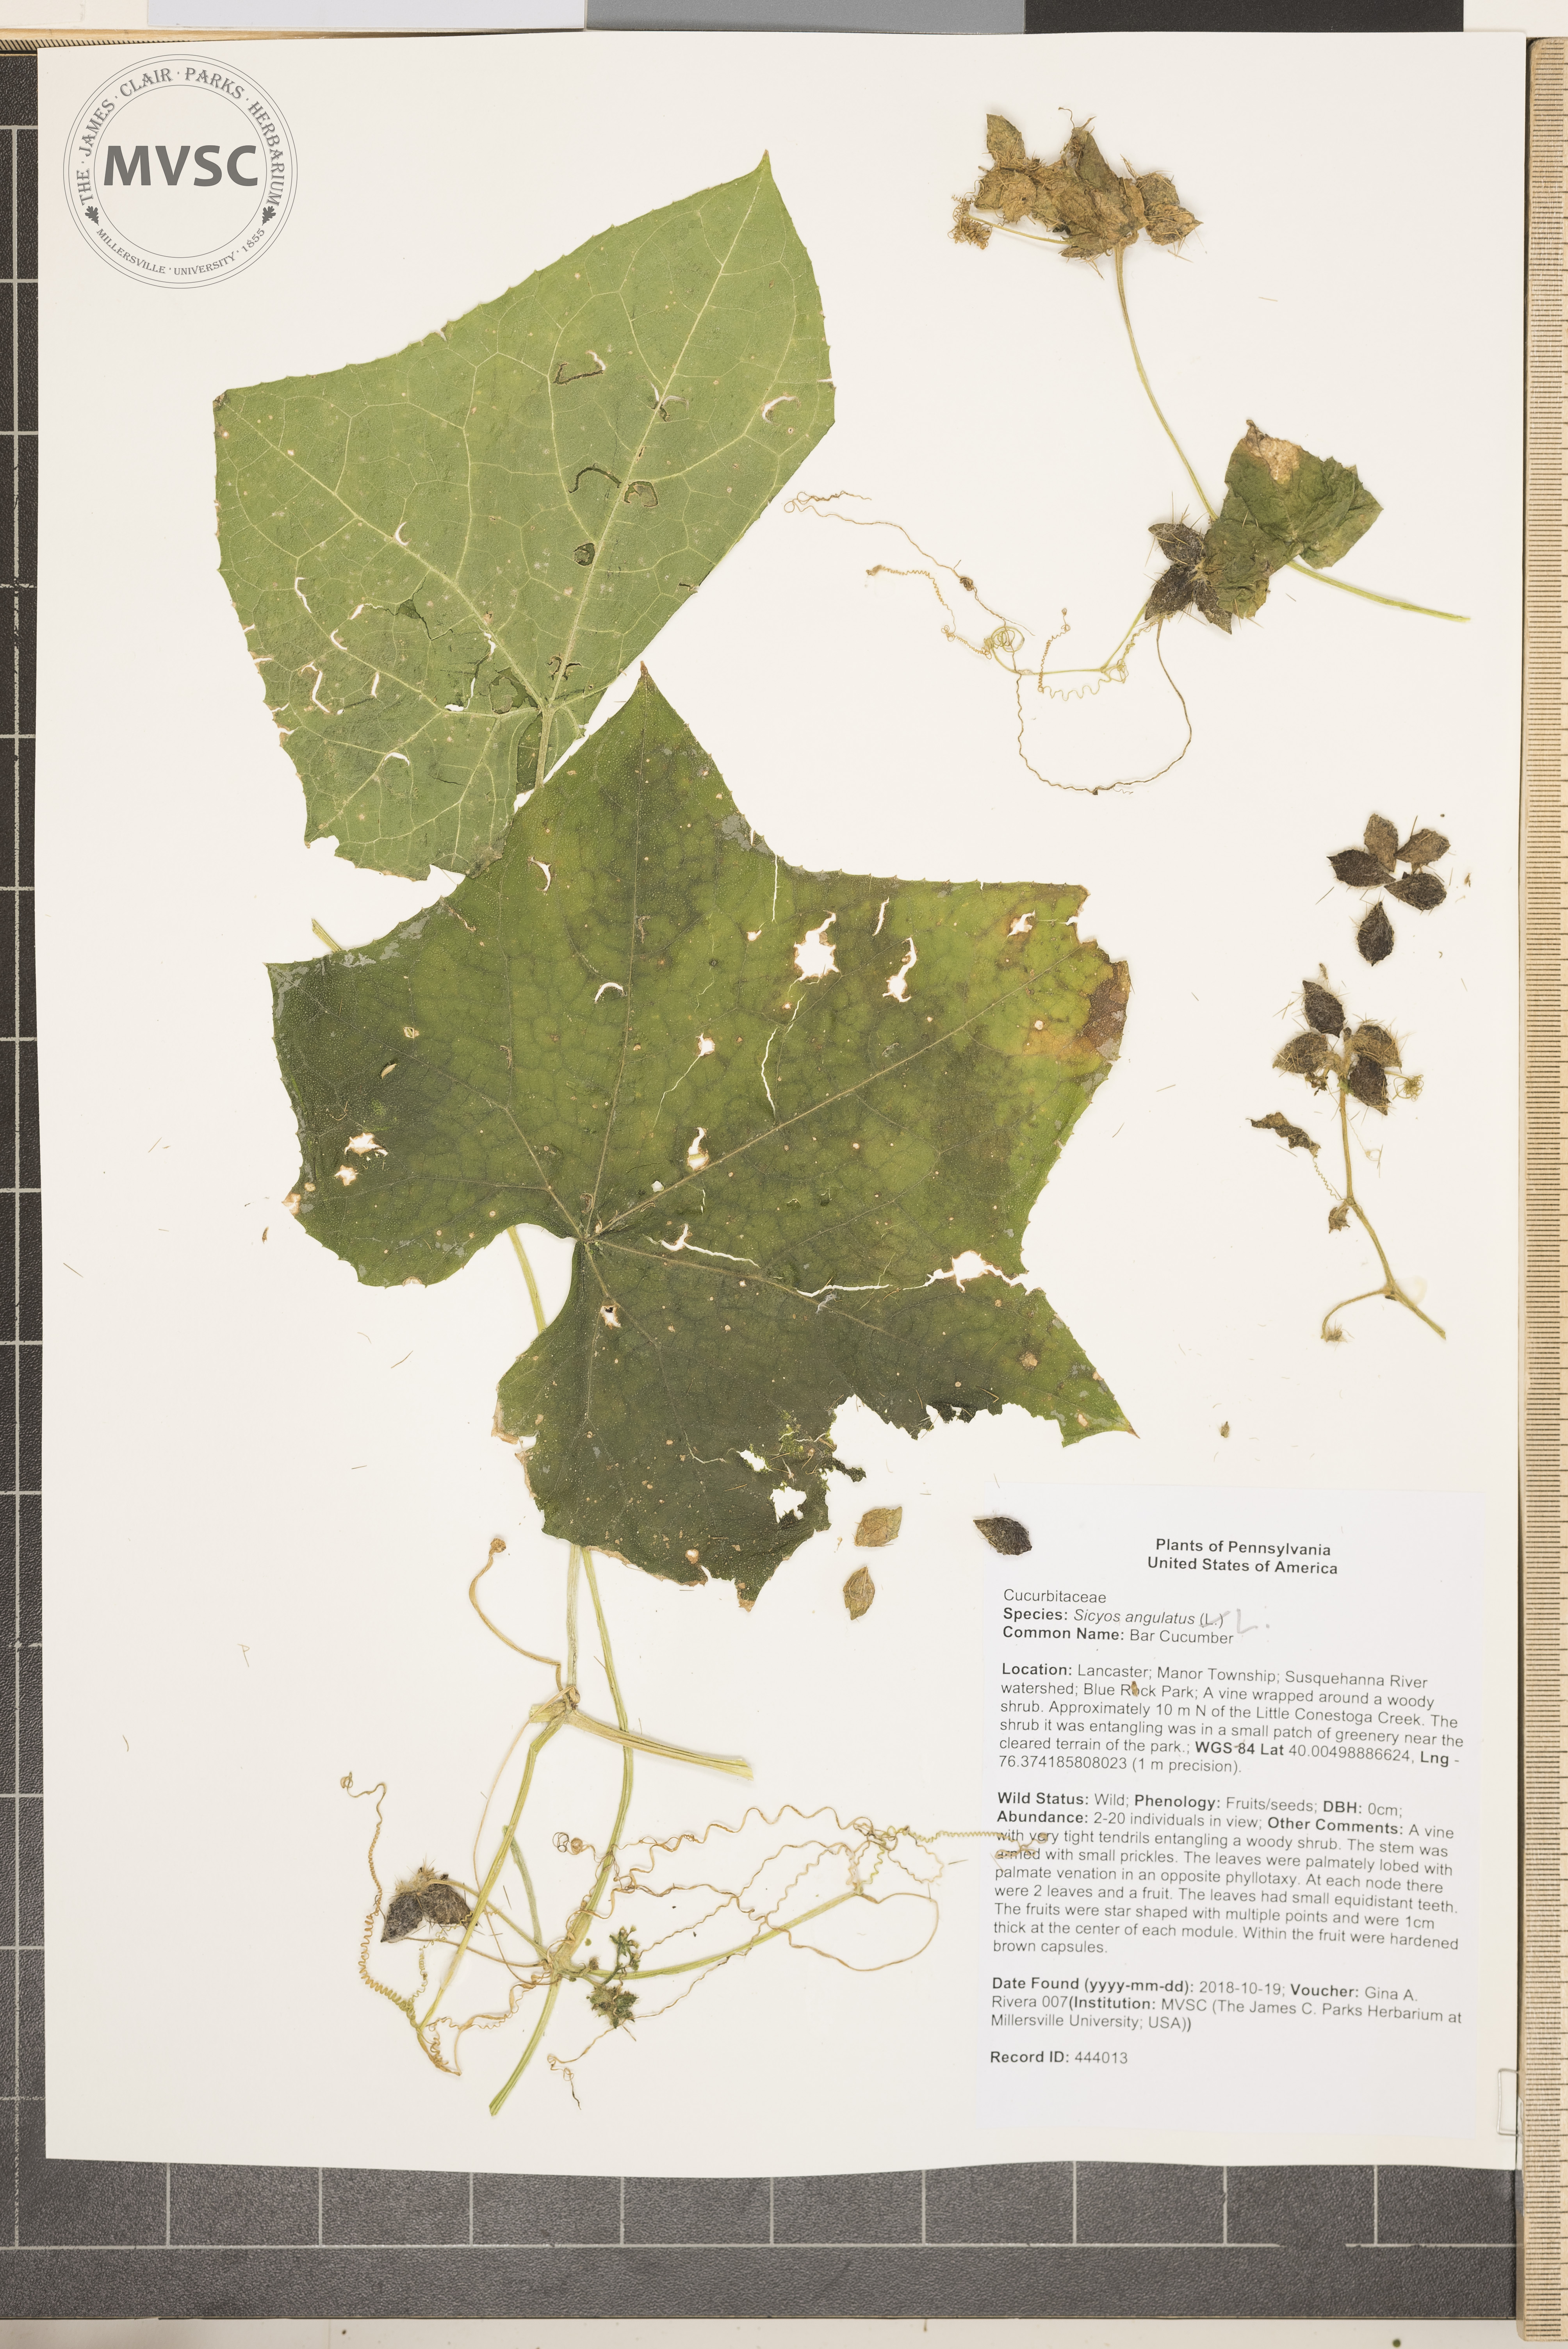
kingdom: Plantae
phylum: Tracheophyta
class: Magnoliopsida
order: Cucurbitales
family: Cucurbitaceae
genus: Sicyos
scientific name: Sicyos angulatus
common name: Bur Cucumber
